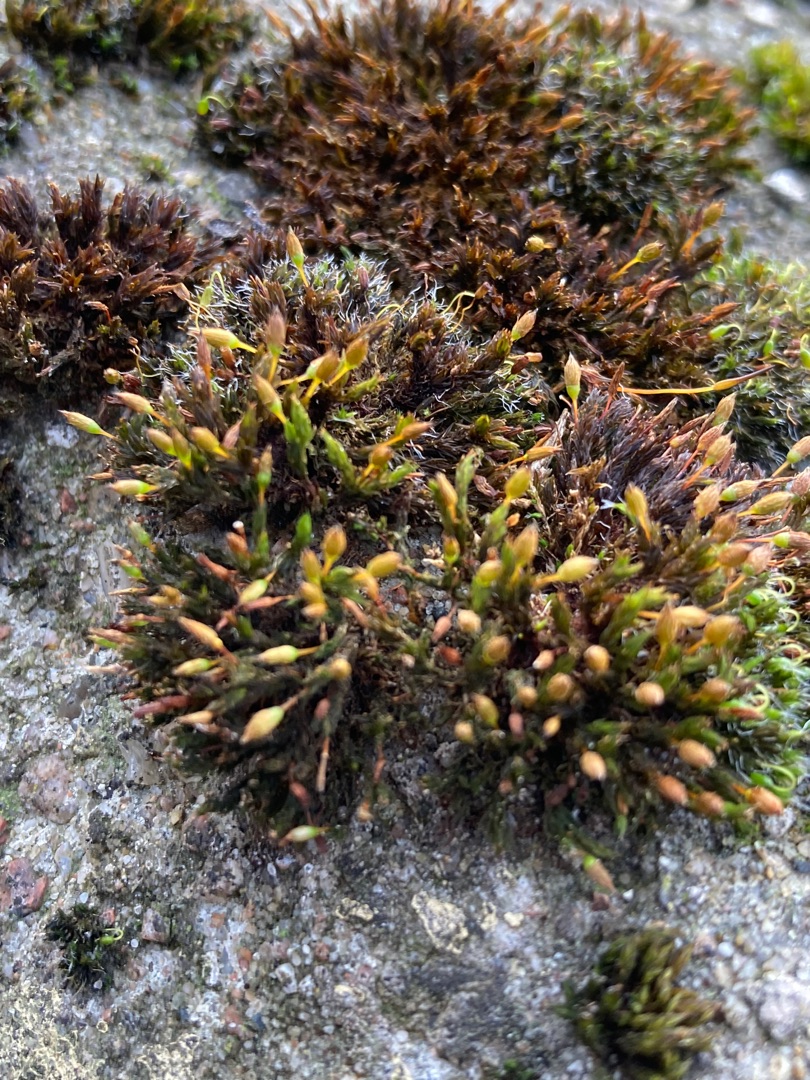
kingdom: Plantae
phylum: Bryophyta
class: Bryopsida
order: Orthotrichales
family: Orthotrichaceae
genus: Orthotrichum
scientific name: Orthotrichum anomalum
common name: Mørk furehætte
